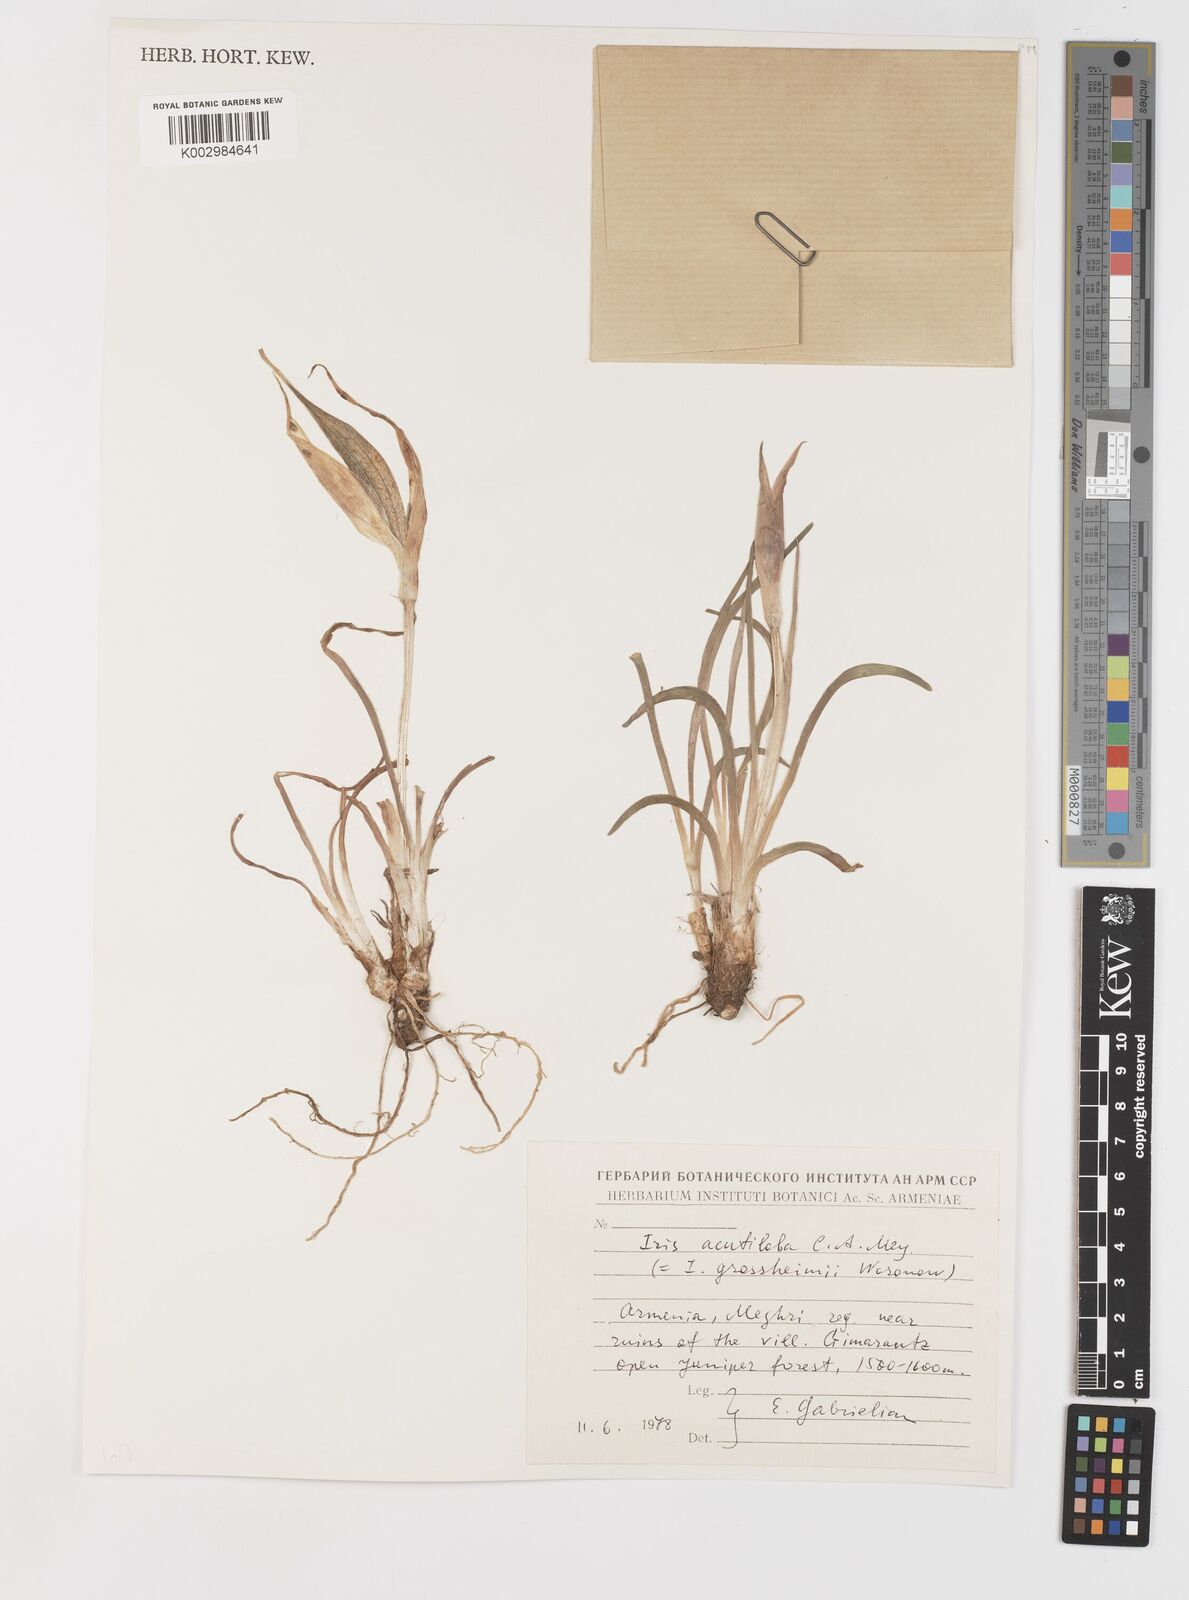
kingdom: Plantae
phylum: Tracheophyta
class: Liliopsida
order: Asparagales
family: Iridaceae
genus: Iris
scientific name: Iris acutiloba
